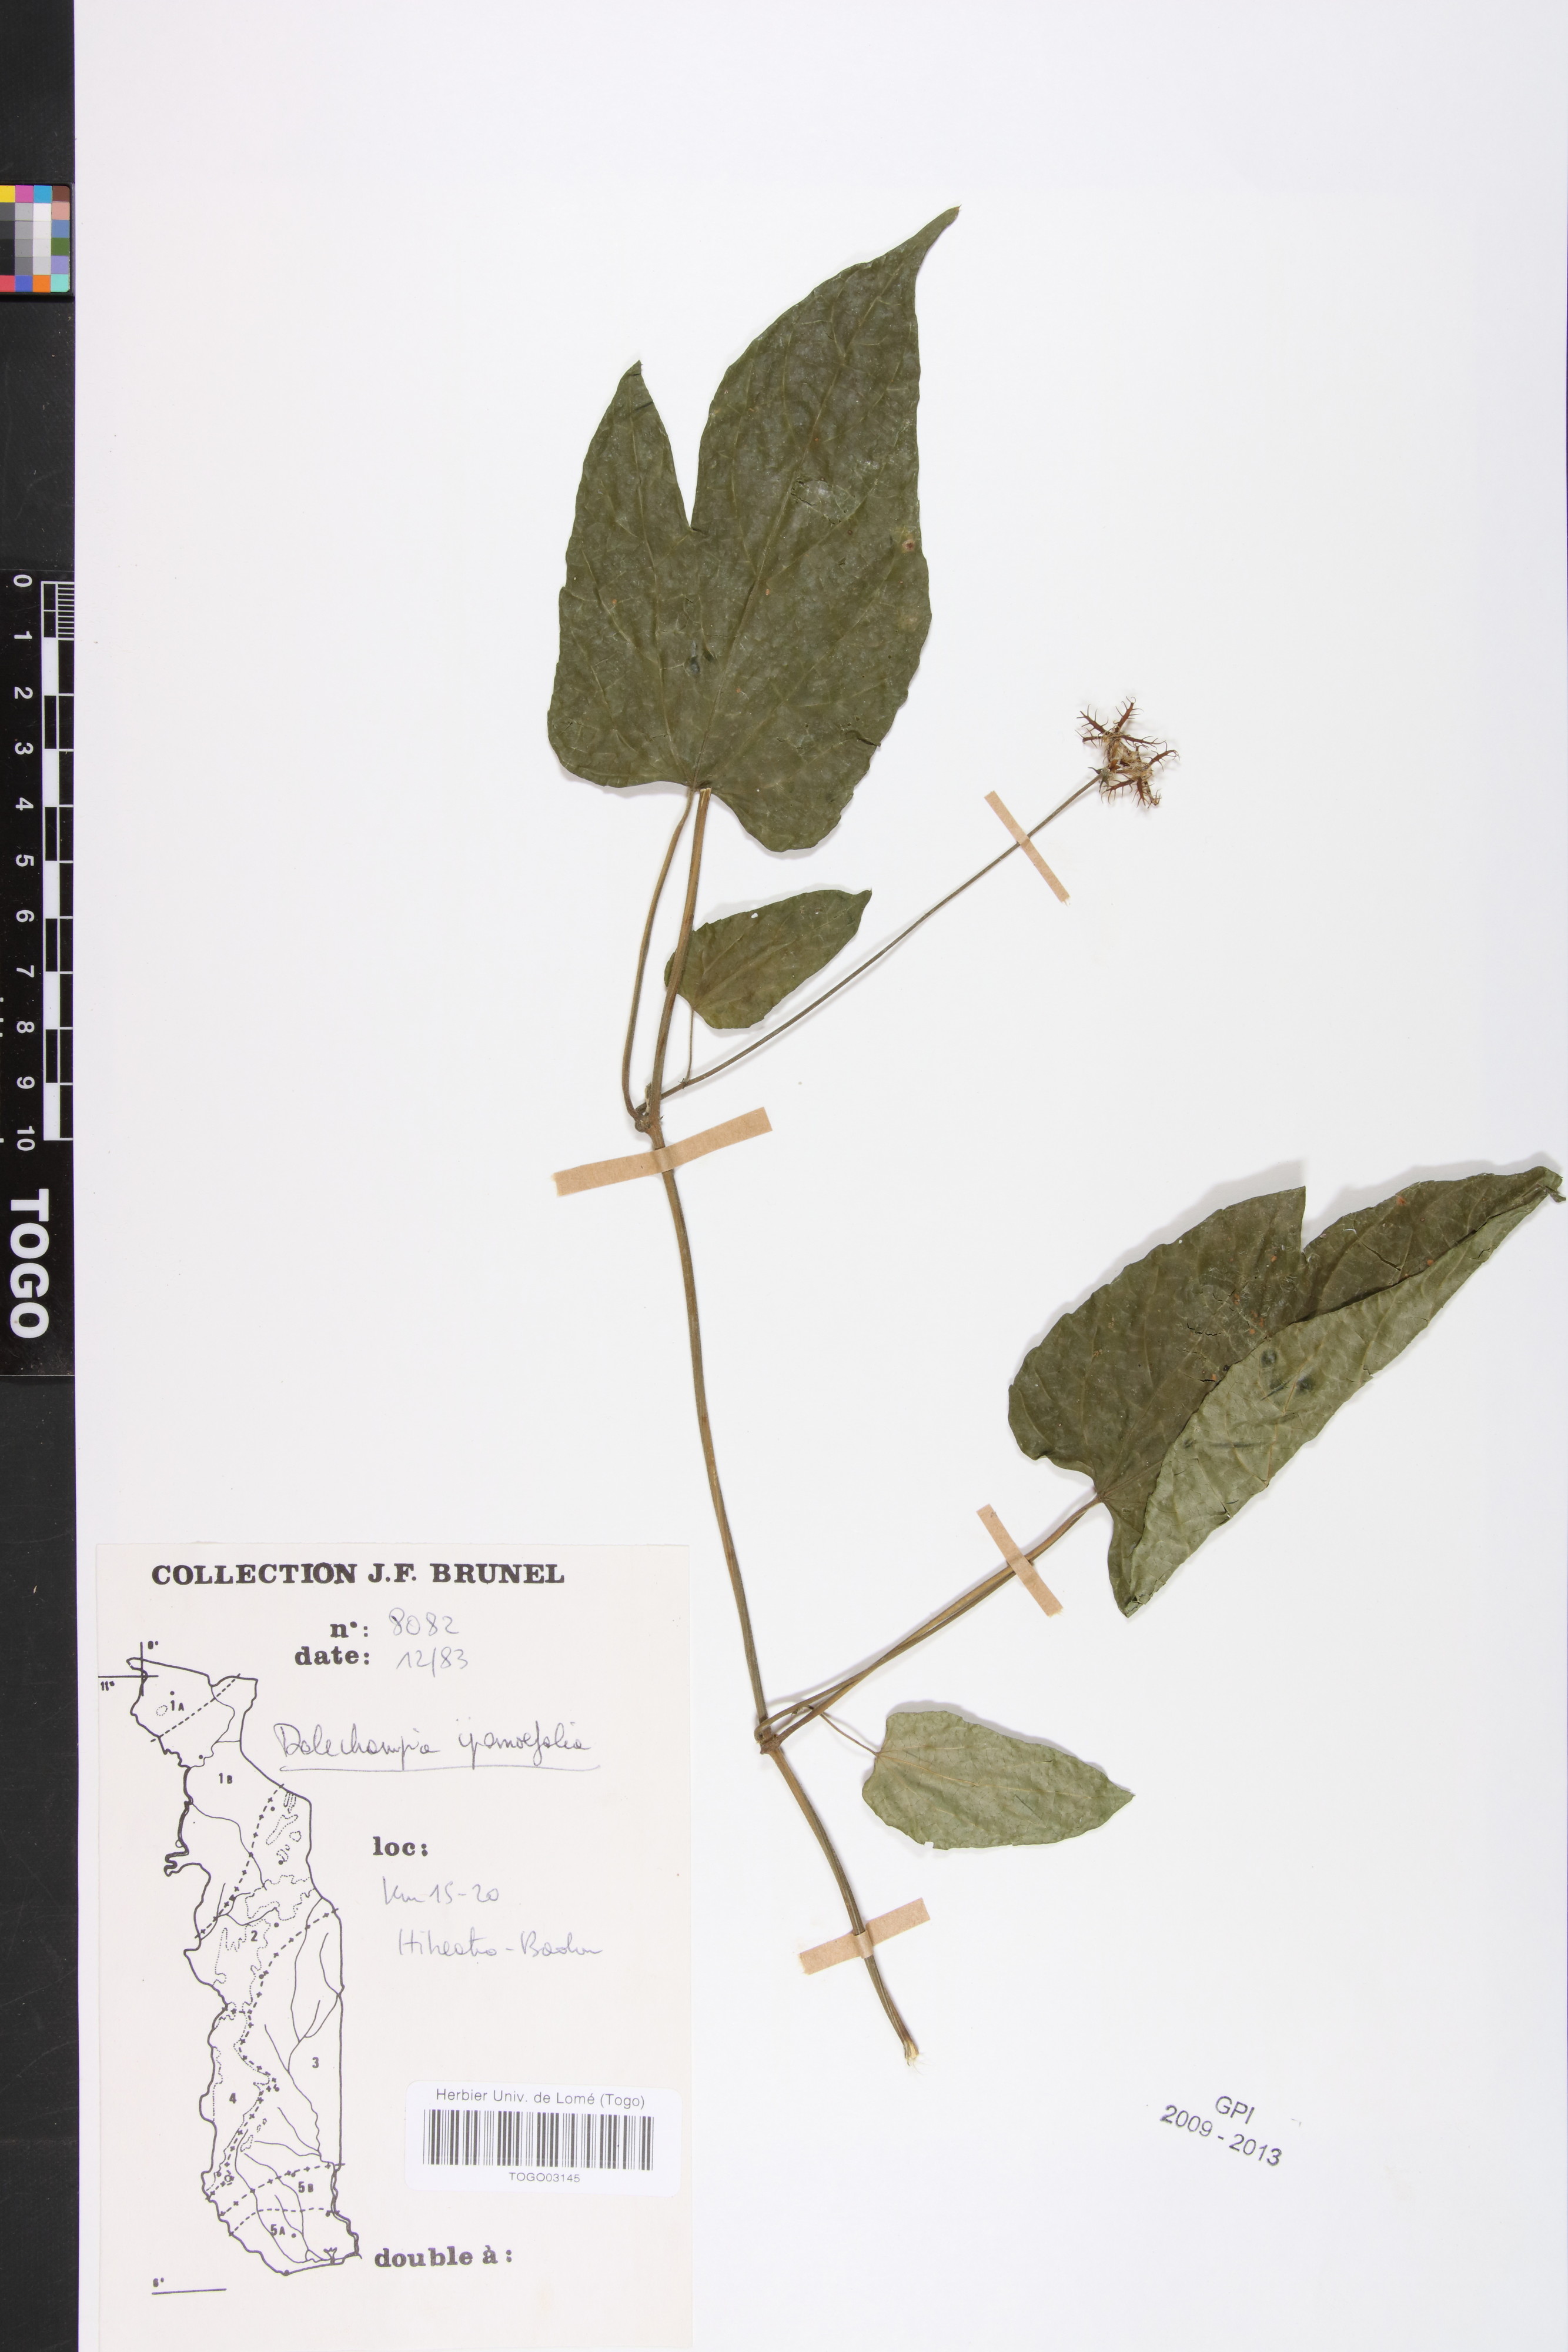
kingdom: Plantae
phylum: Tracheophyta
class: Magnoliopsida
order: Malpighiales
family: Euphorbiaceae
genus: Dalechampia
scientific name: Dalechampia ipomoeifolia
